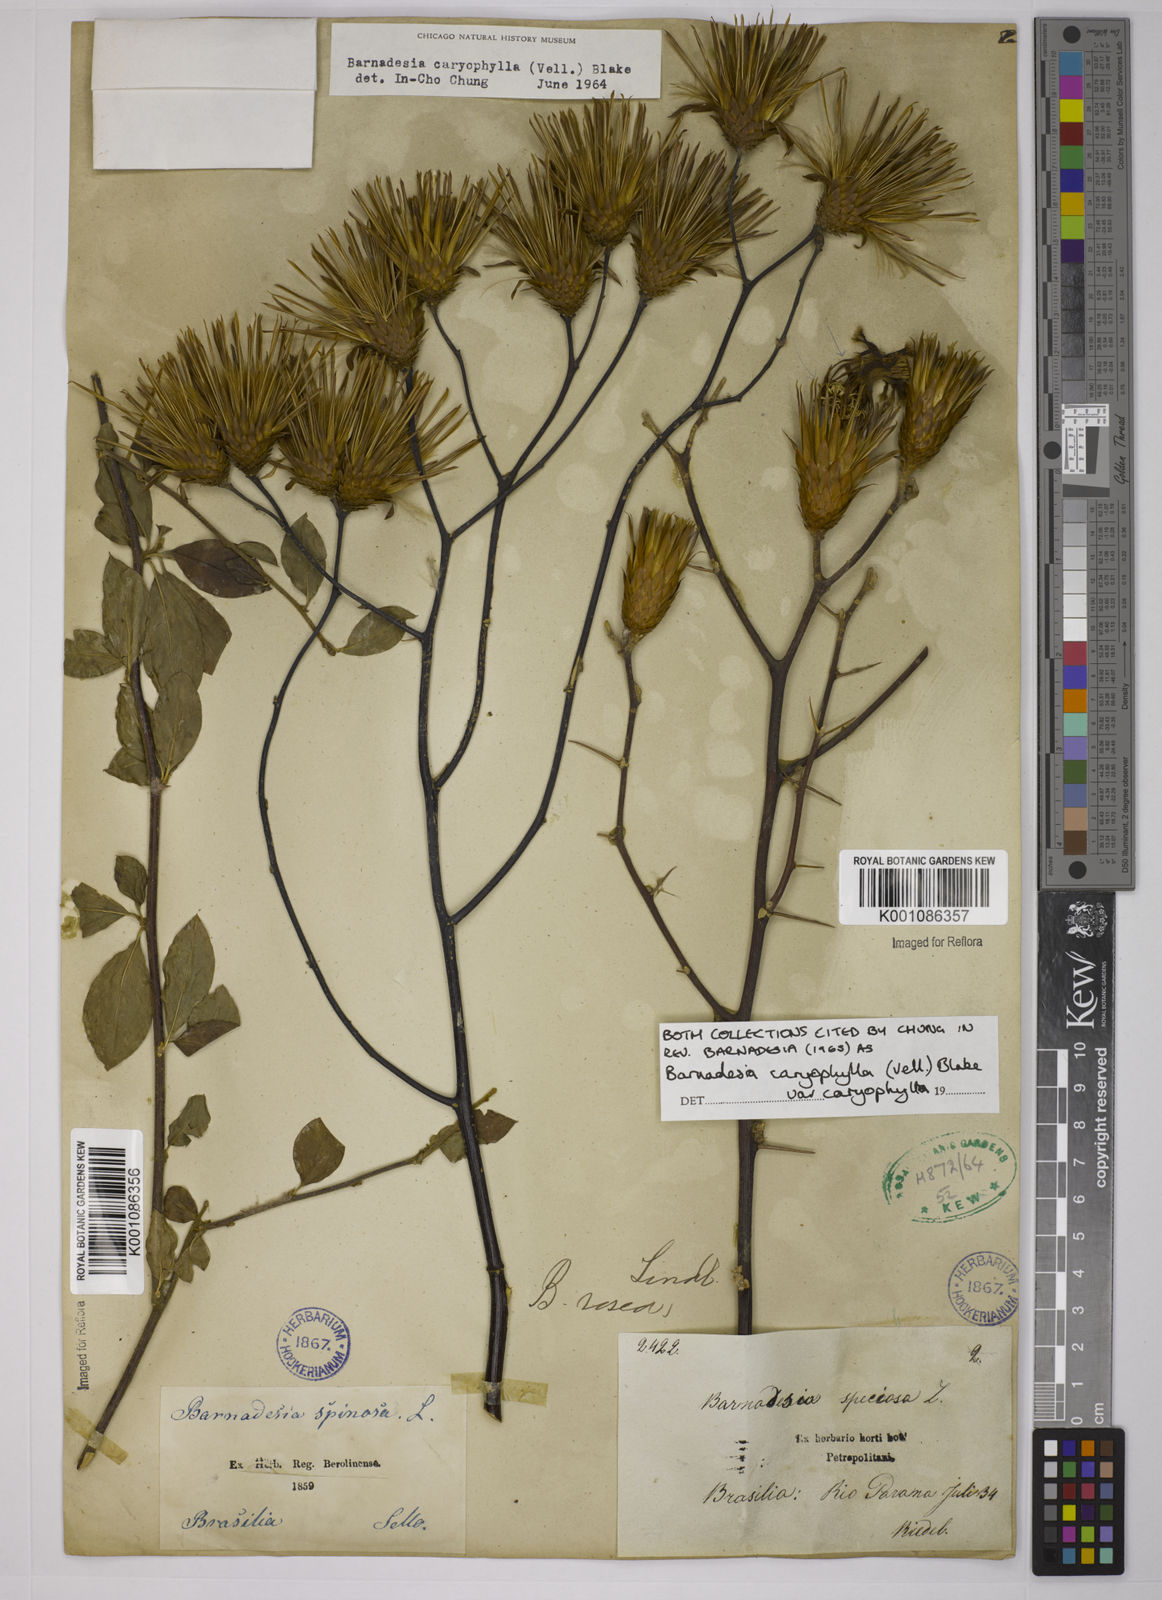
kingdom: Plantae
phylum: Tracheophyta
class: Magnoliopsida
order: Asterales
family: Asteraceae
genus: Barnadesia
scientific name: Barnadesia caryophylla
